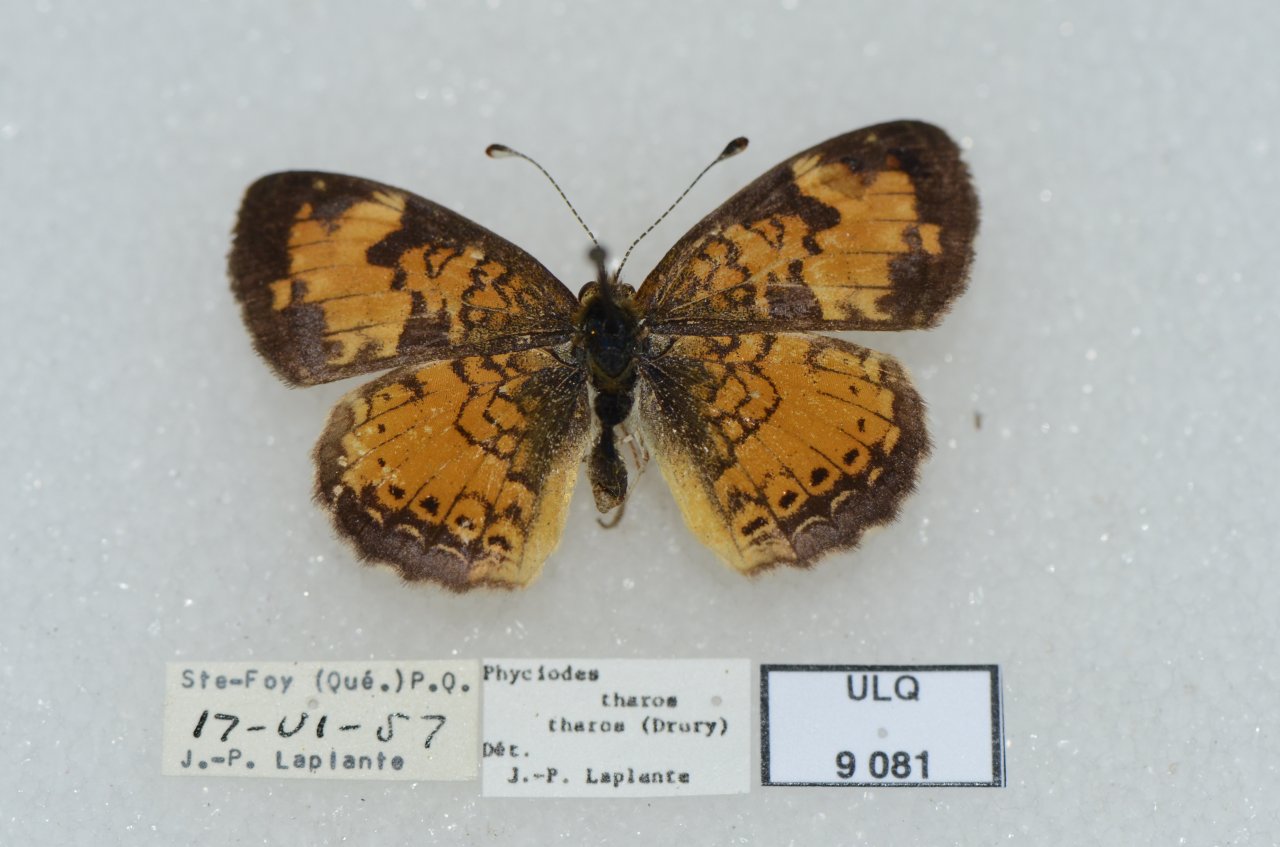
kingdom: Animalia
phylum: Arthropoda
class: Insecta
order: Lepidoptera
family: Nymphalidae
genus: Phyciodes
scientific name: Phyciodes tharos
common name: Northern Crescent
